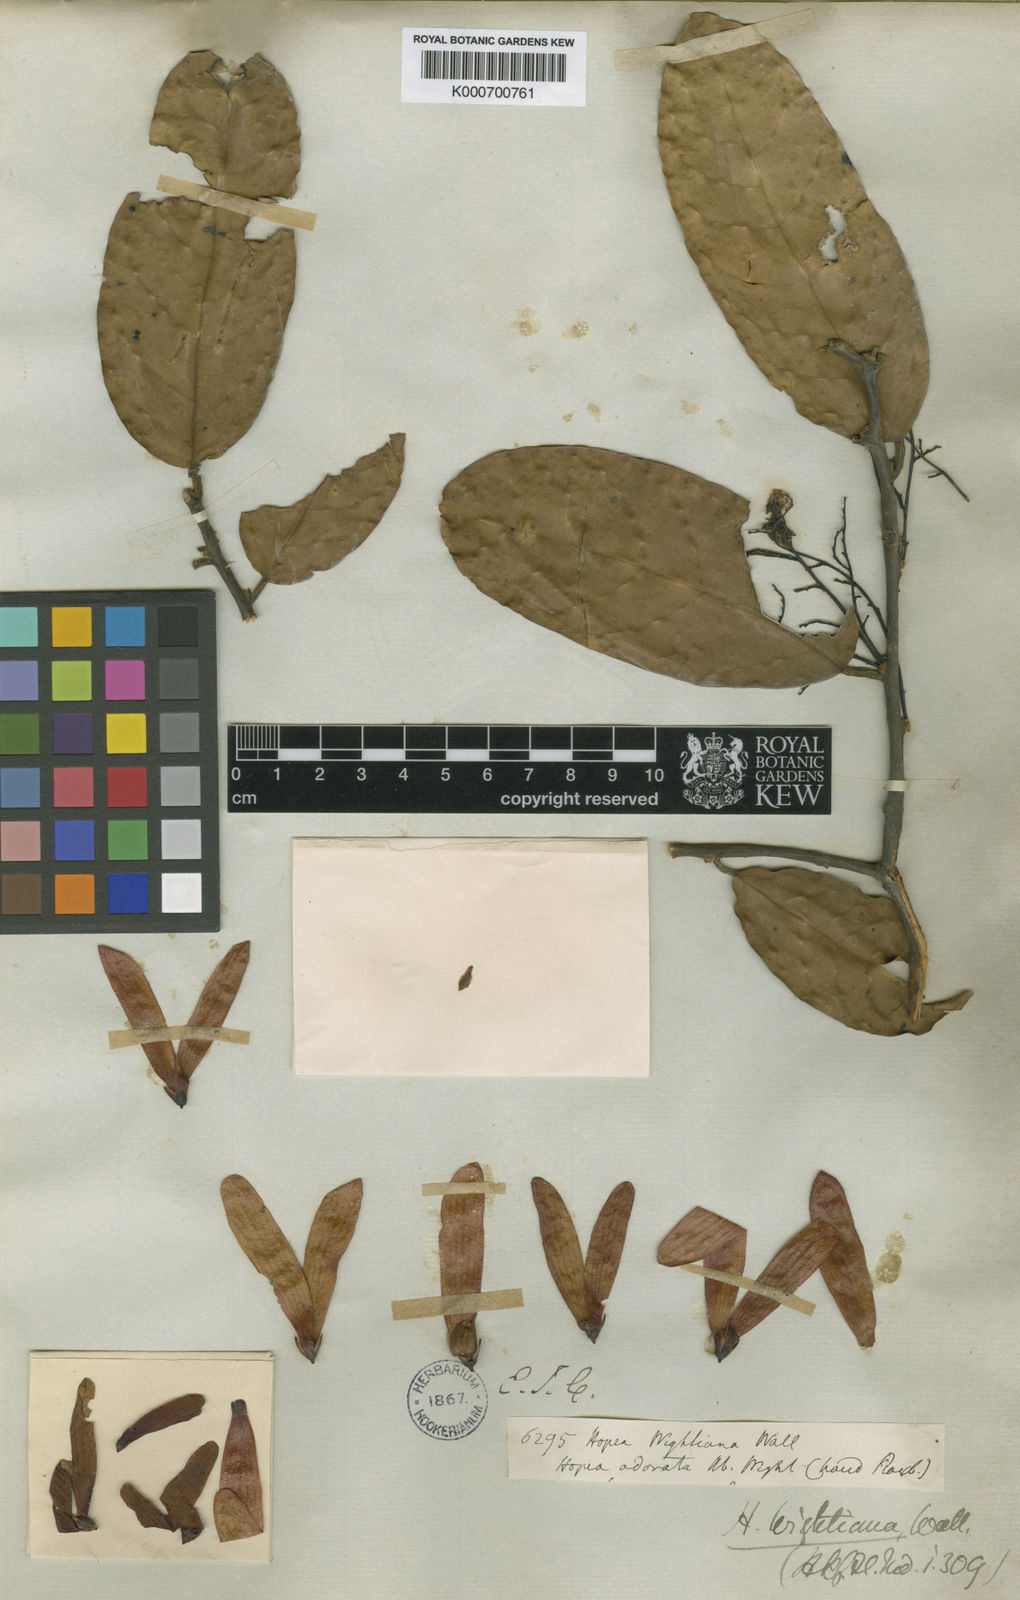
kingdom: Plantae
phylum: Tracheophyta
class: Magnoliopsida
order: Malvales
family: Dipterocarpaceae
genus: Hopea
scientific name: Hopea ponga
